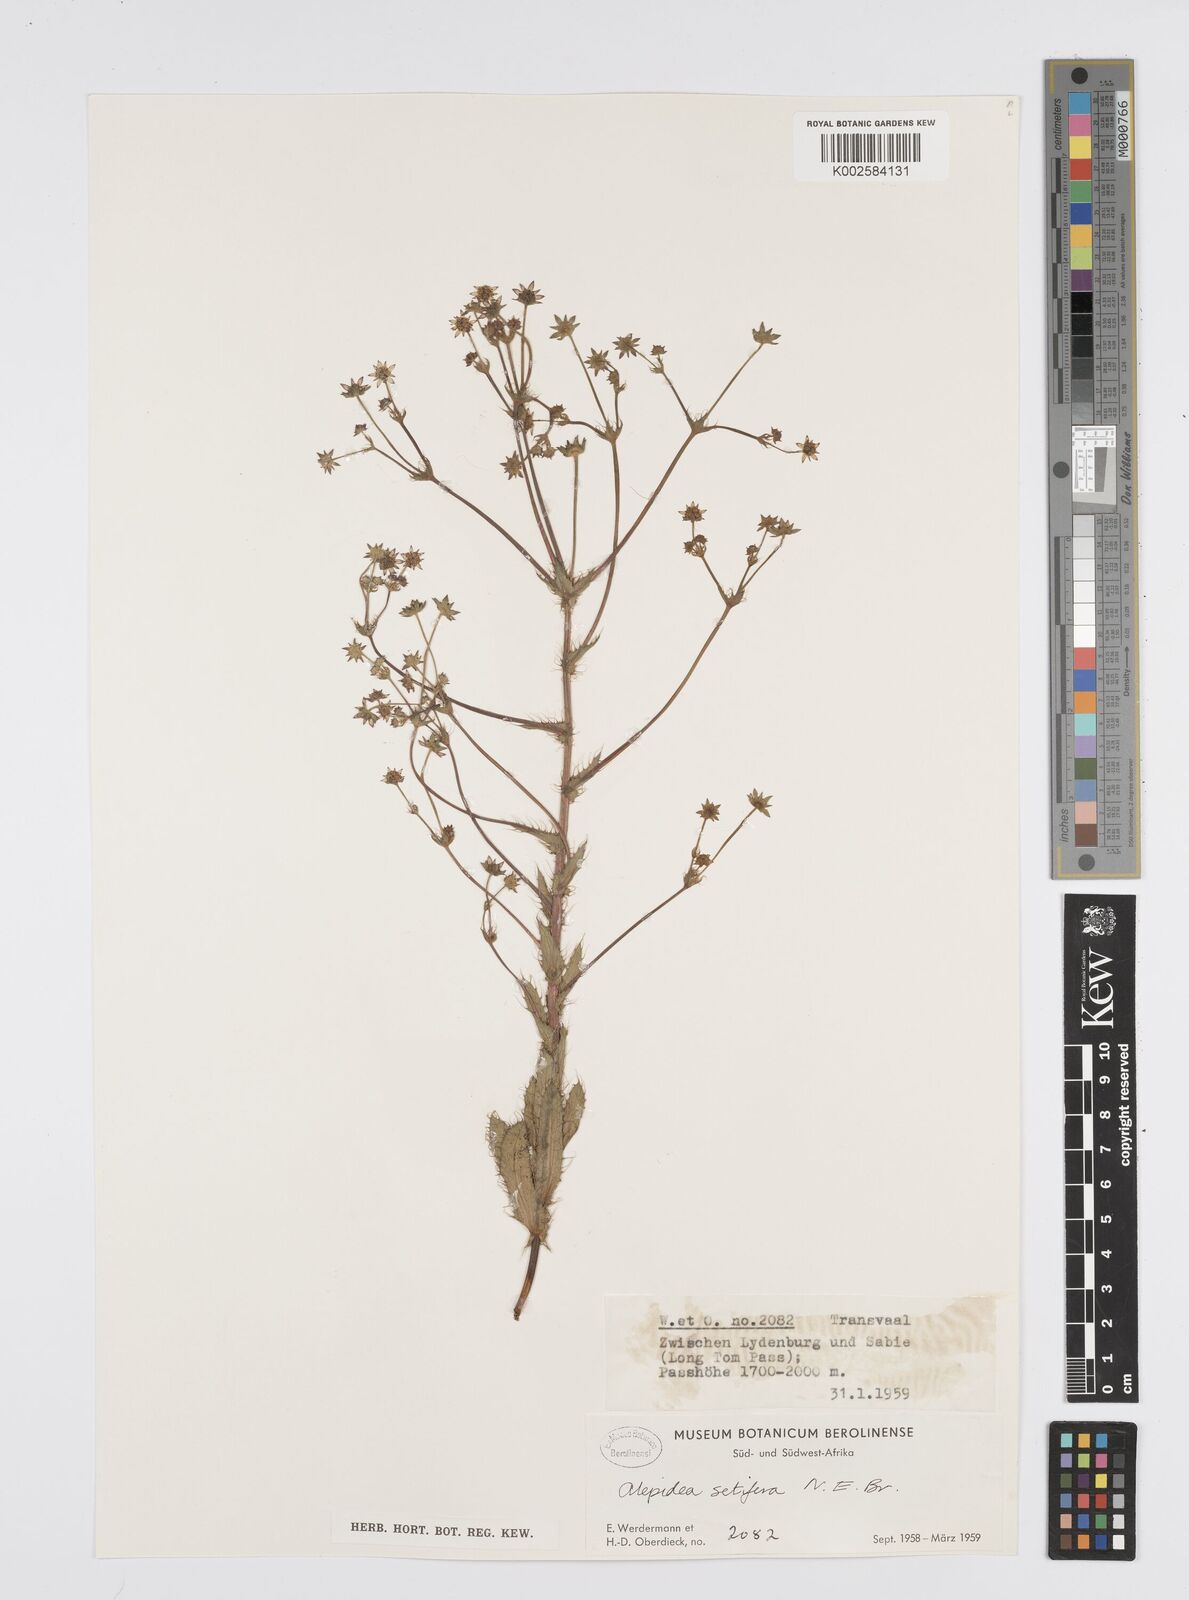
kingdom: Plantae
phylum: Tracheophyta
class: Magnoliopsida
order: Apiales
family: Apiaceae
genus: Alepidea
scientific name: Alepidea setifera
